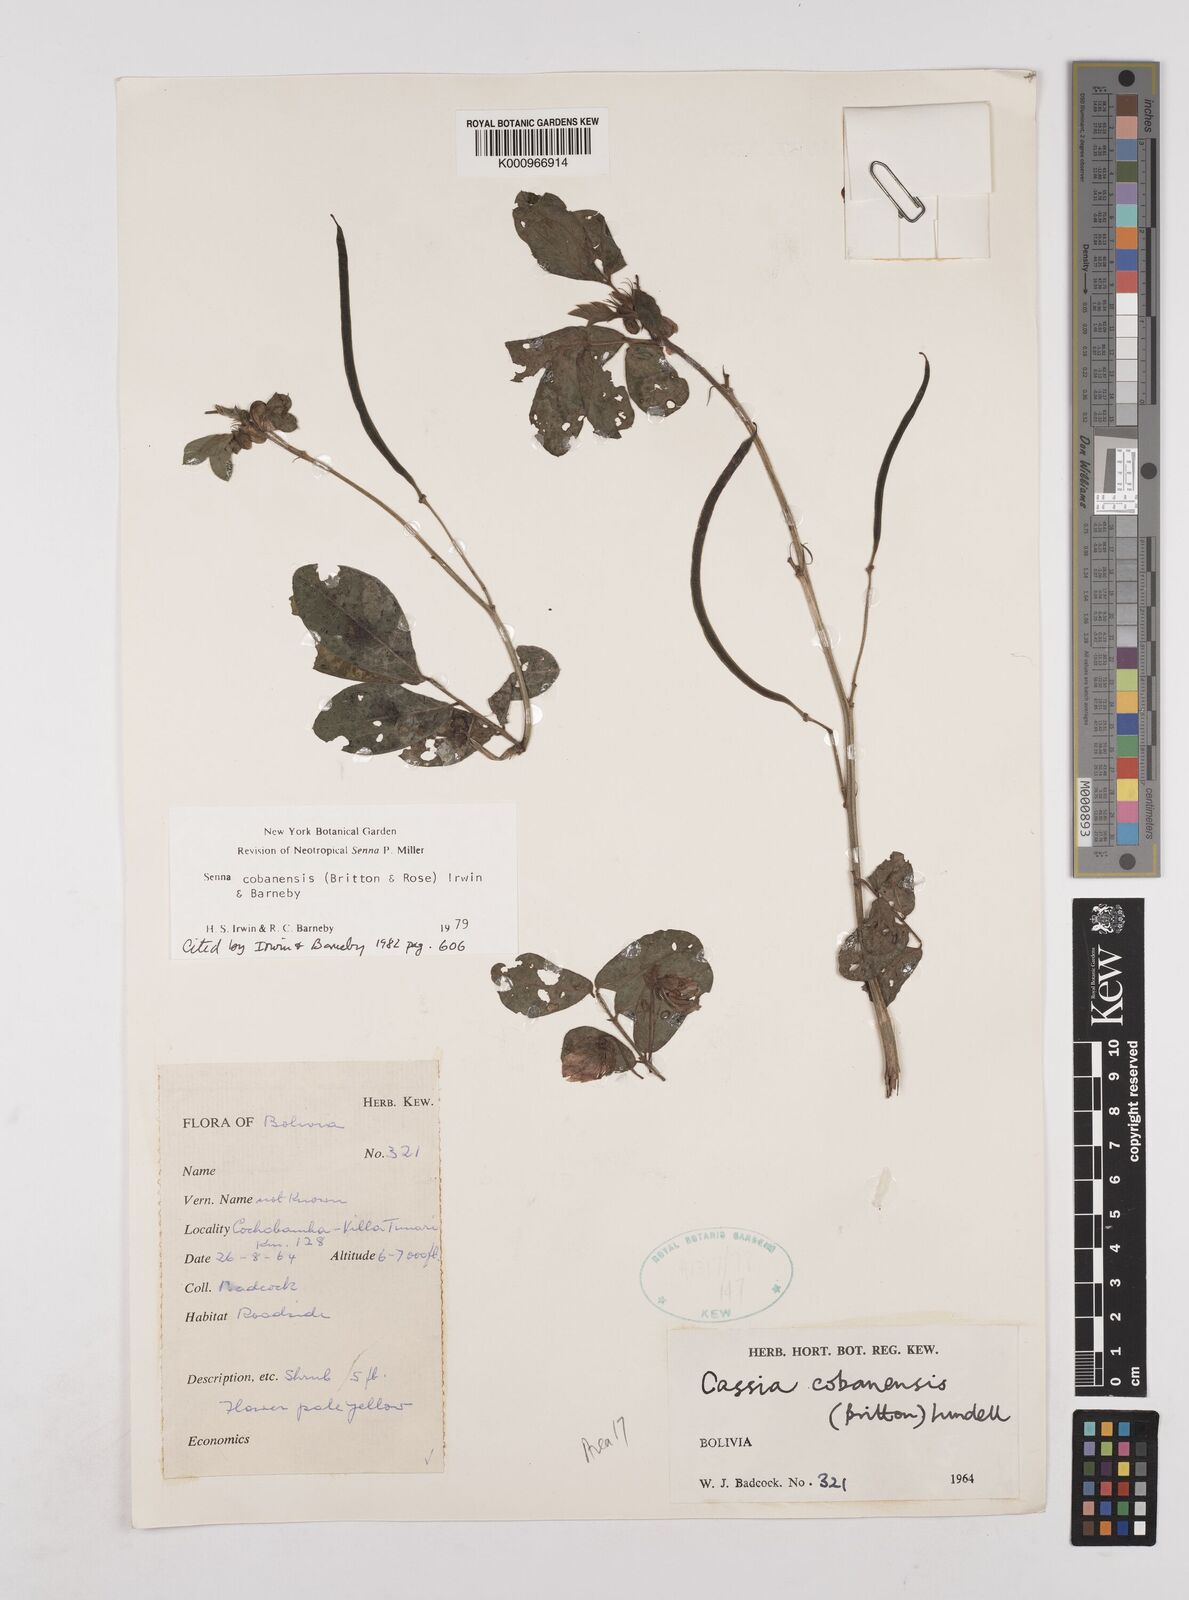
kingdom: Plantae
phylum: Tracheophyta
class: Magnoliopsida
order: Fabales
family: Fabaceae
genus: Senna
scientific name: Senna cobanensis
